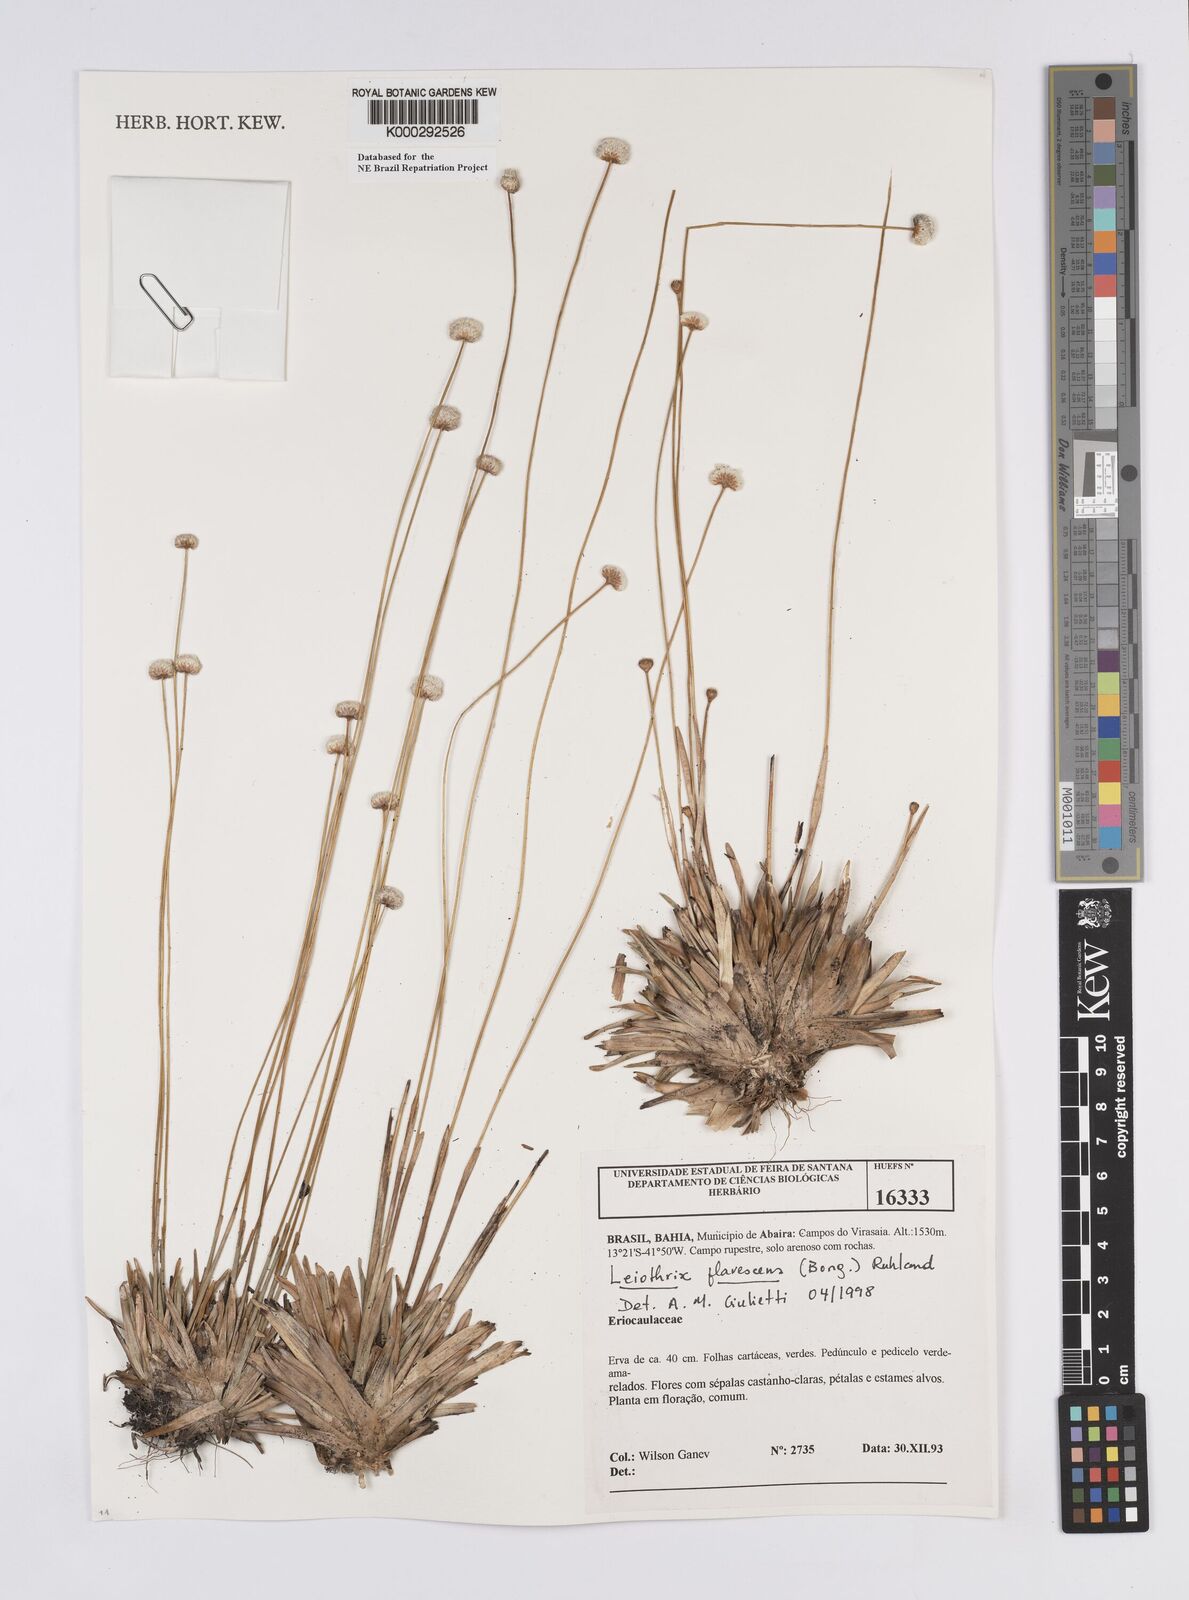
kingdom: Plantae
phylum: Tracheophyta
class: Liliopsida
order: Poales
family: Eriocaulaceae
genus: Leiothrix
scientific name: Leiothrix flavescens
